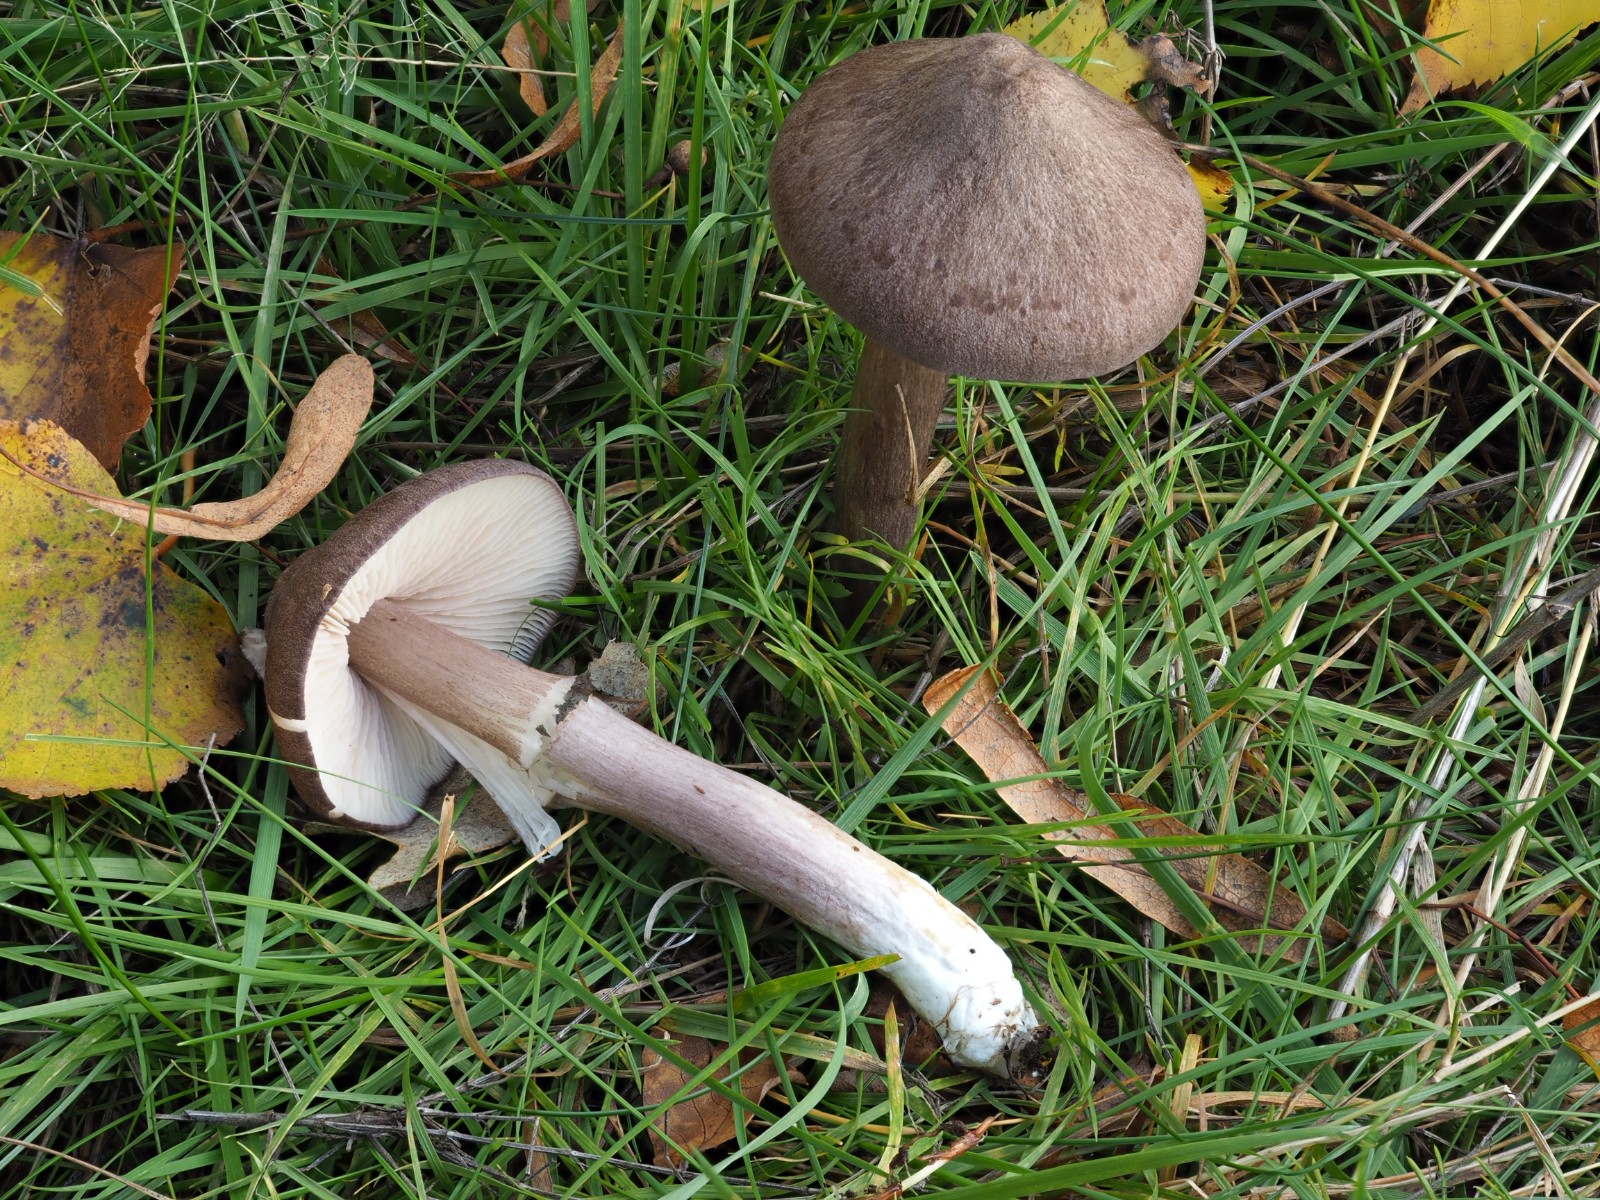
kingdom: Fungi
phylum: Basidiomycota
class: Agaricomycetes
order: Agaricales
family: Entolomataceae
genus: Entoloma
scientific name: Entoloma porphyrophaeum
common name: porfyrbrun rødblad
